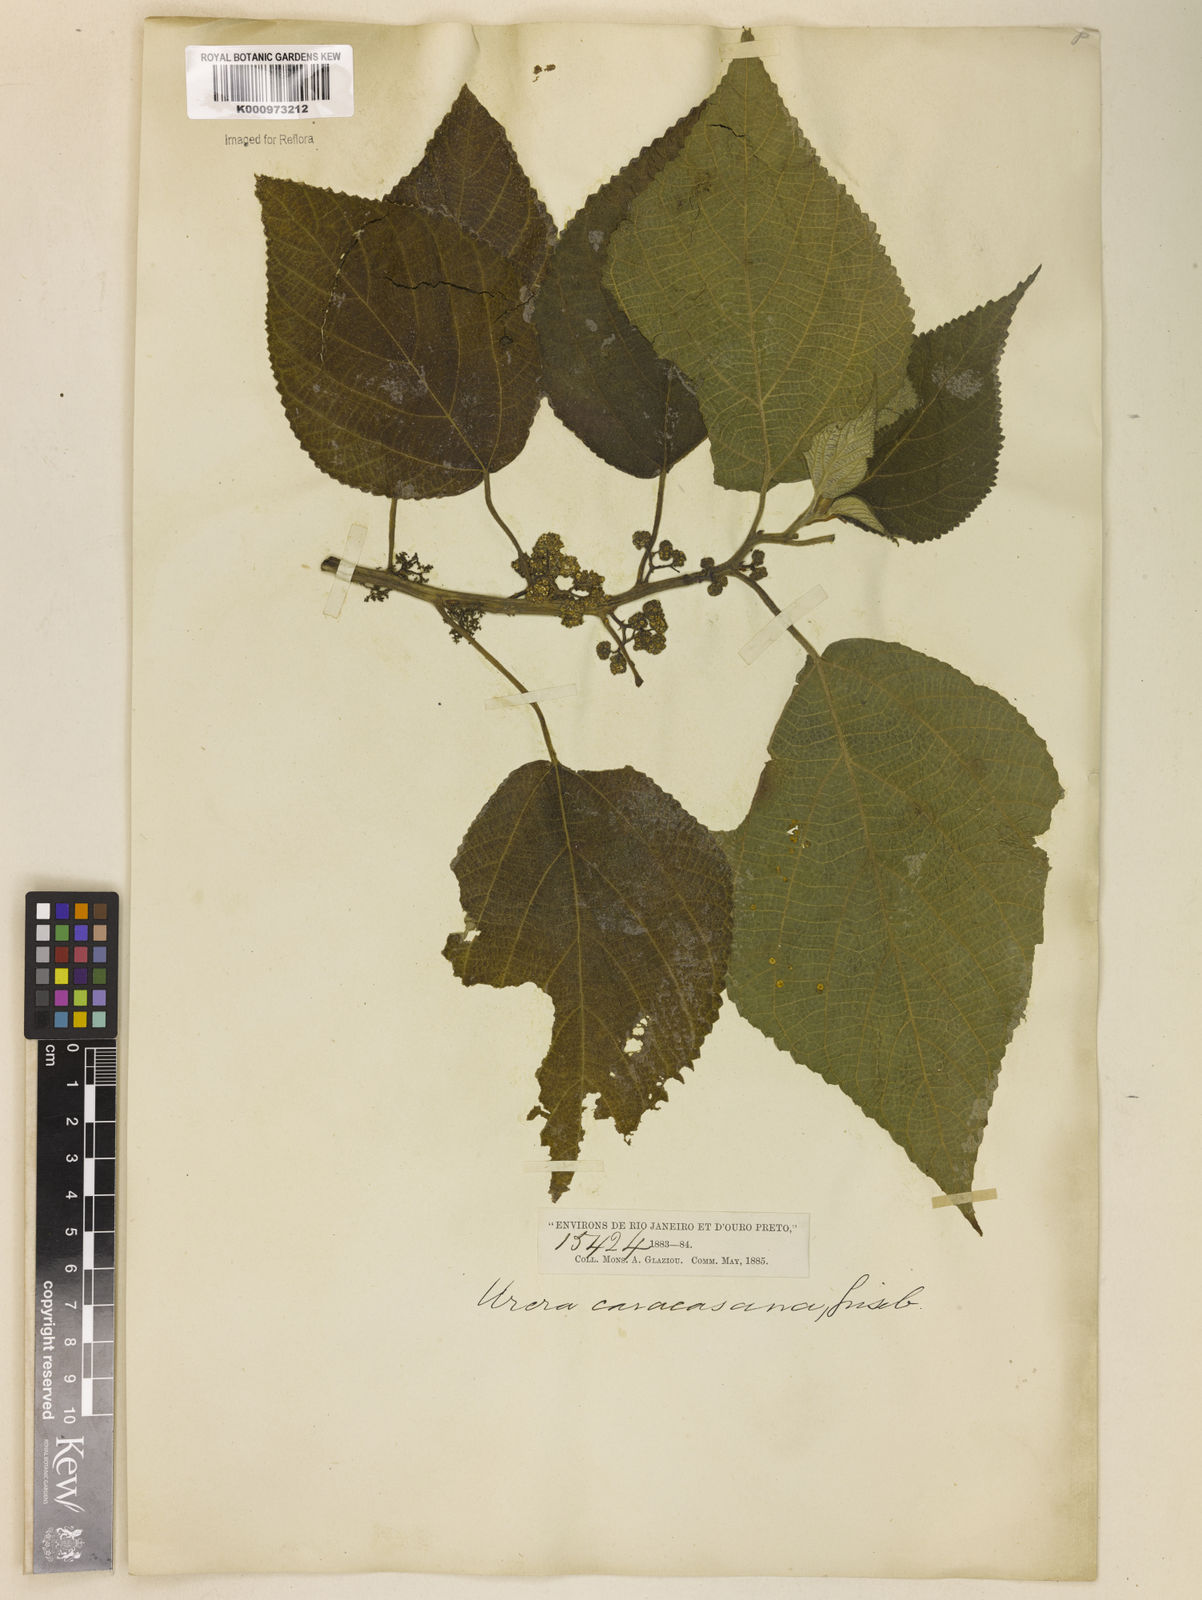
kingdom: Plantae
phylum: Tracheophyta
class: Magnoliopsida
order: Rosales
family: Urticaceae
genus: Urera
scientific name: Urera caracasana
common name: Flameberry
